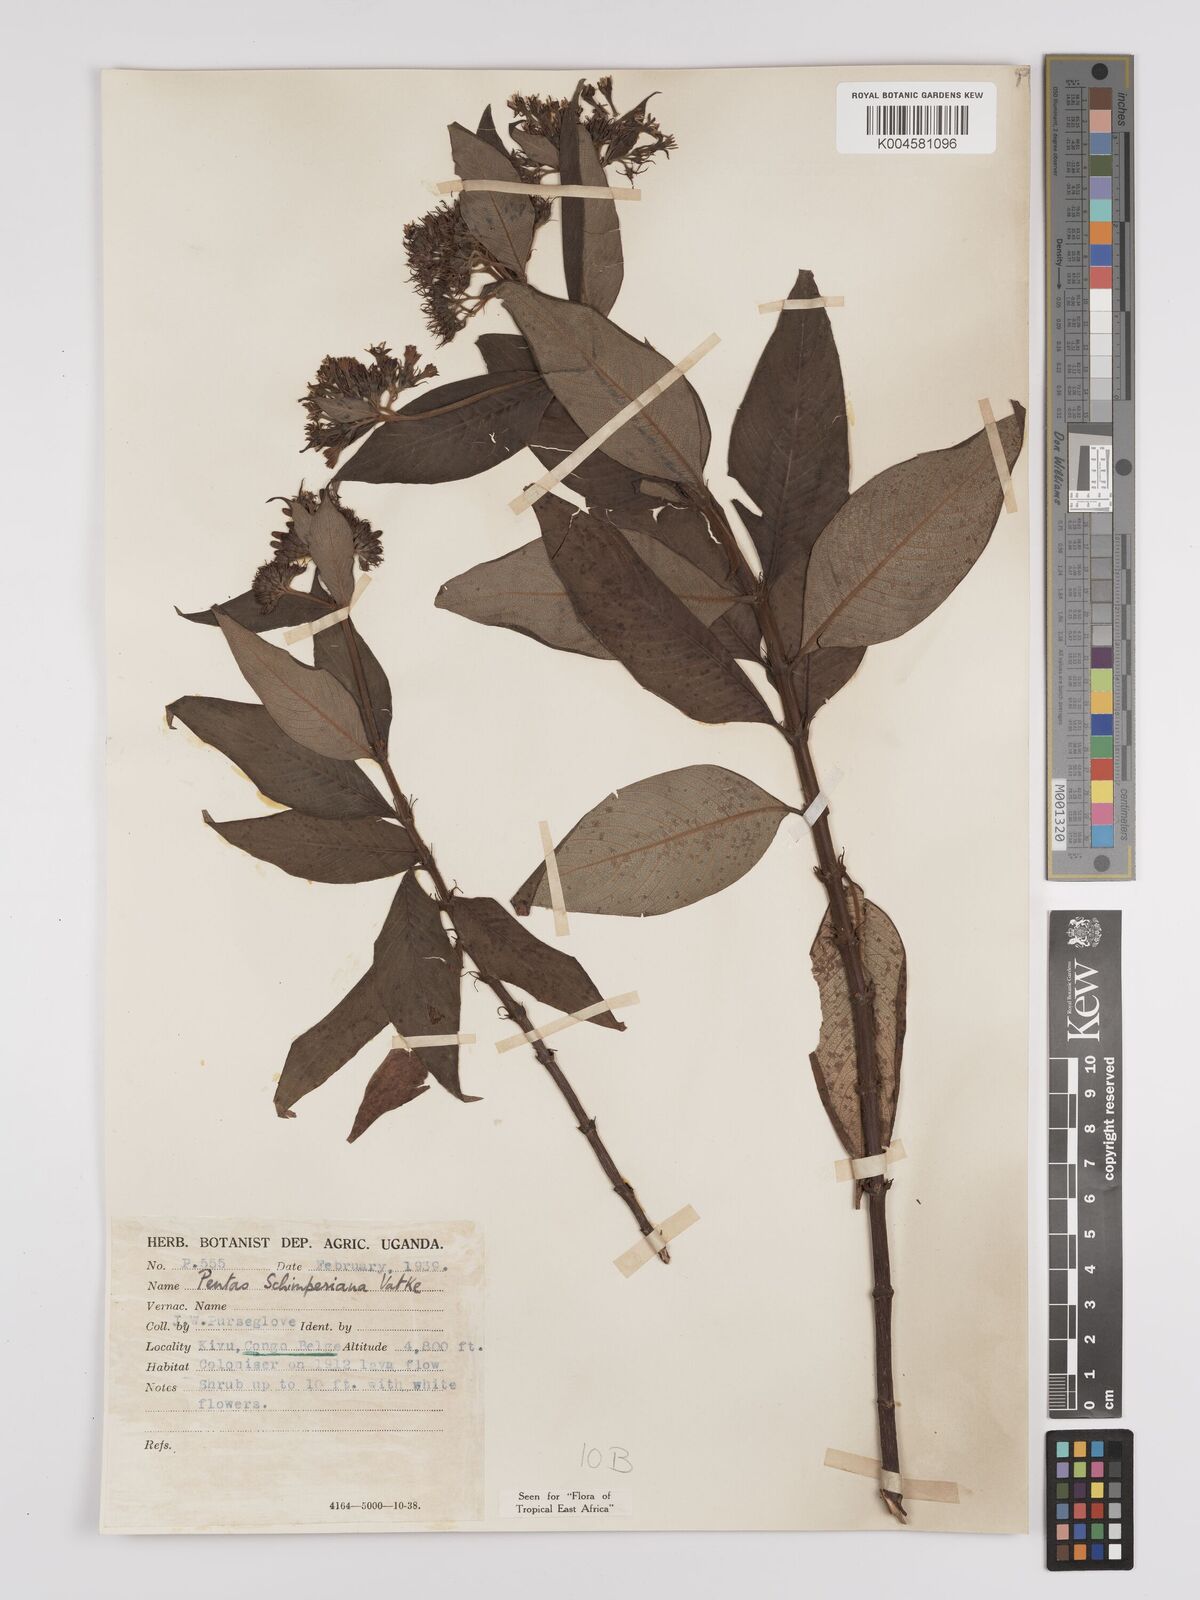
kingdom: Plantae
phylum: Tracheophyta
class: Magnoliopsida
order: Gentianales
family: Rubiaceae
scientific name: Rubiaceae
